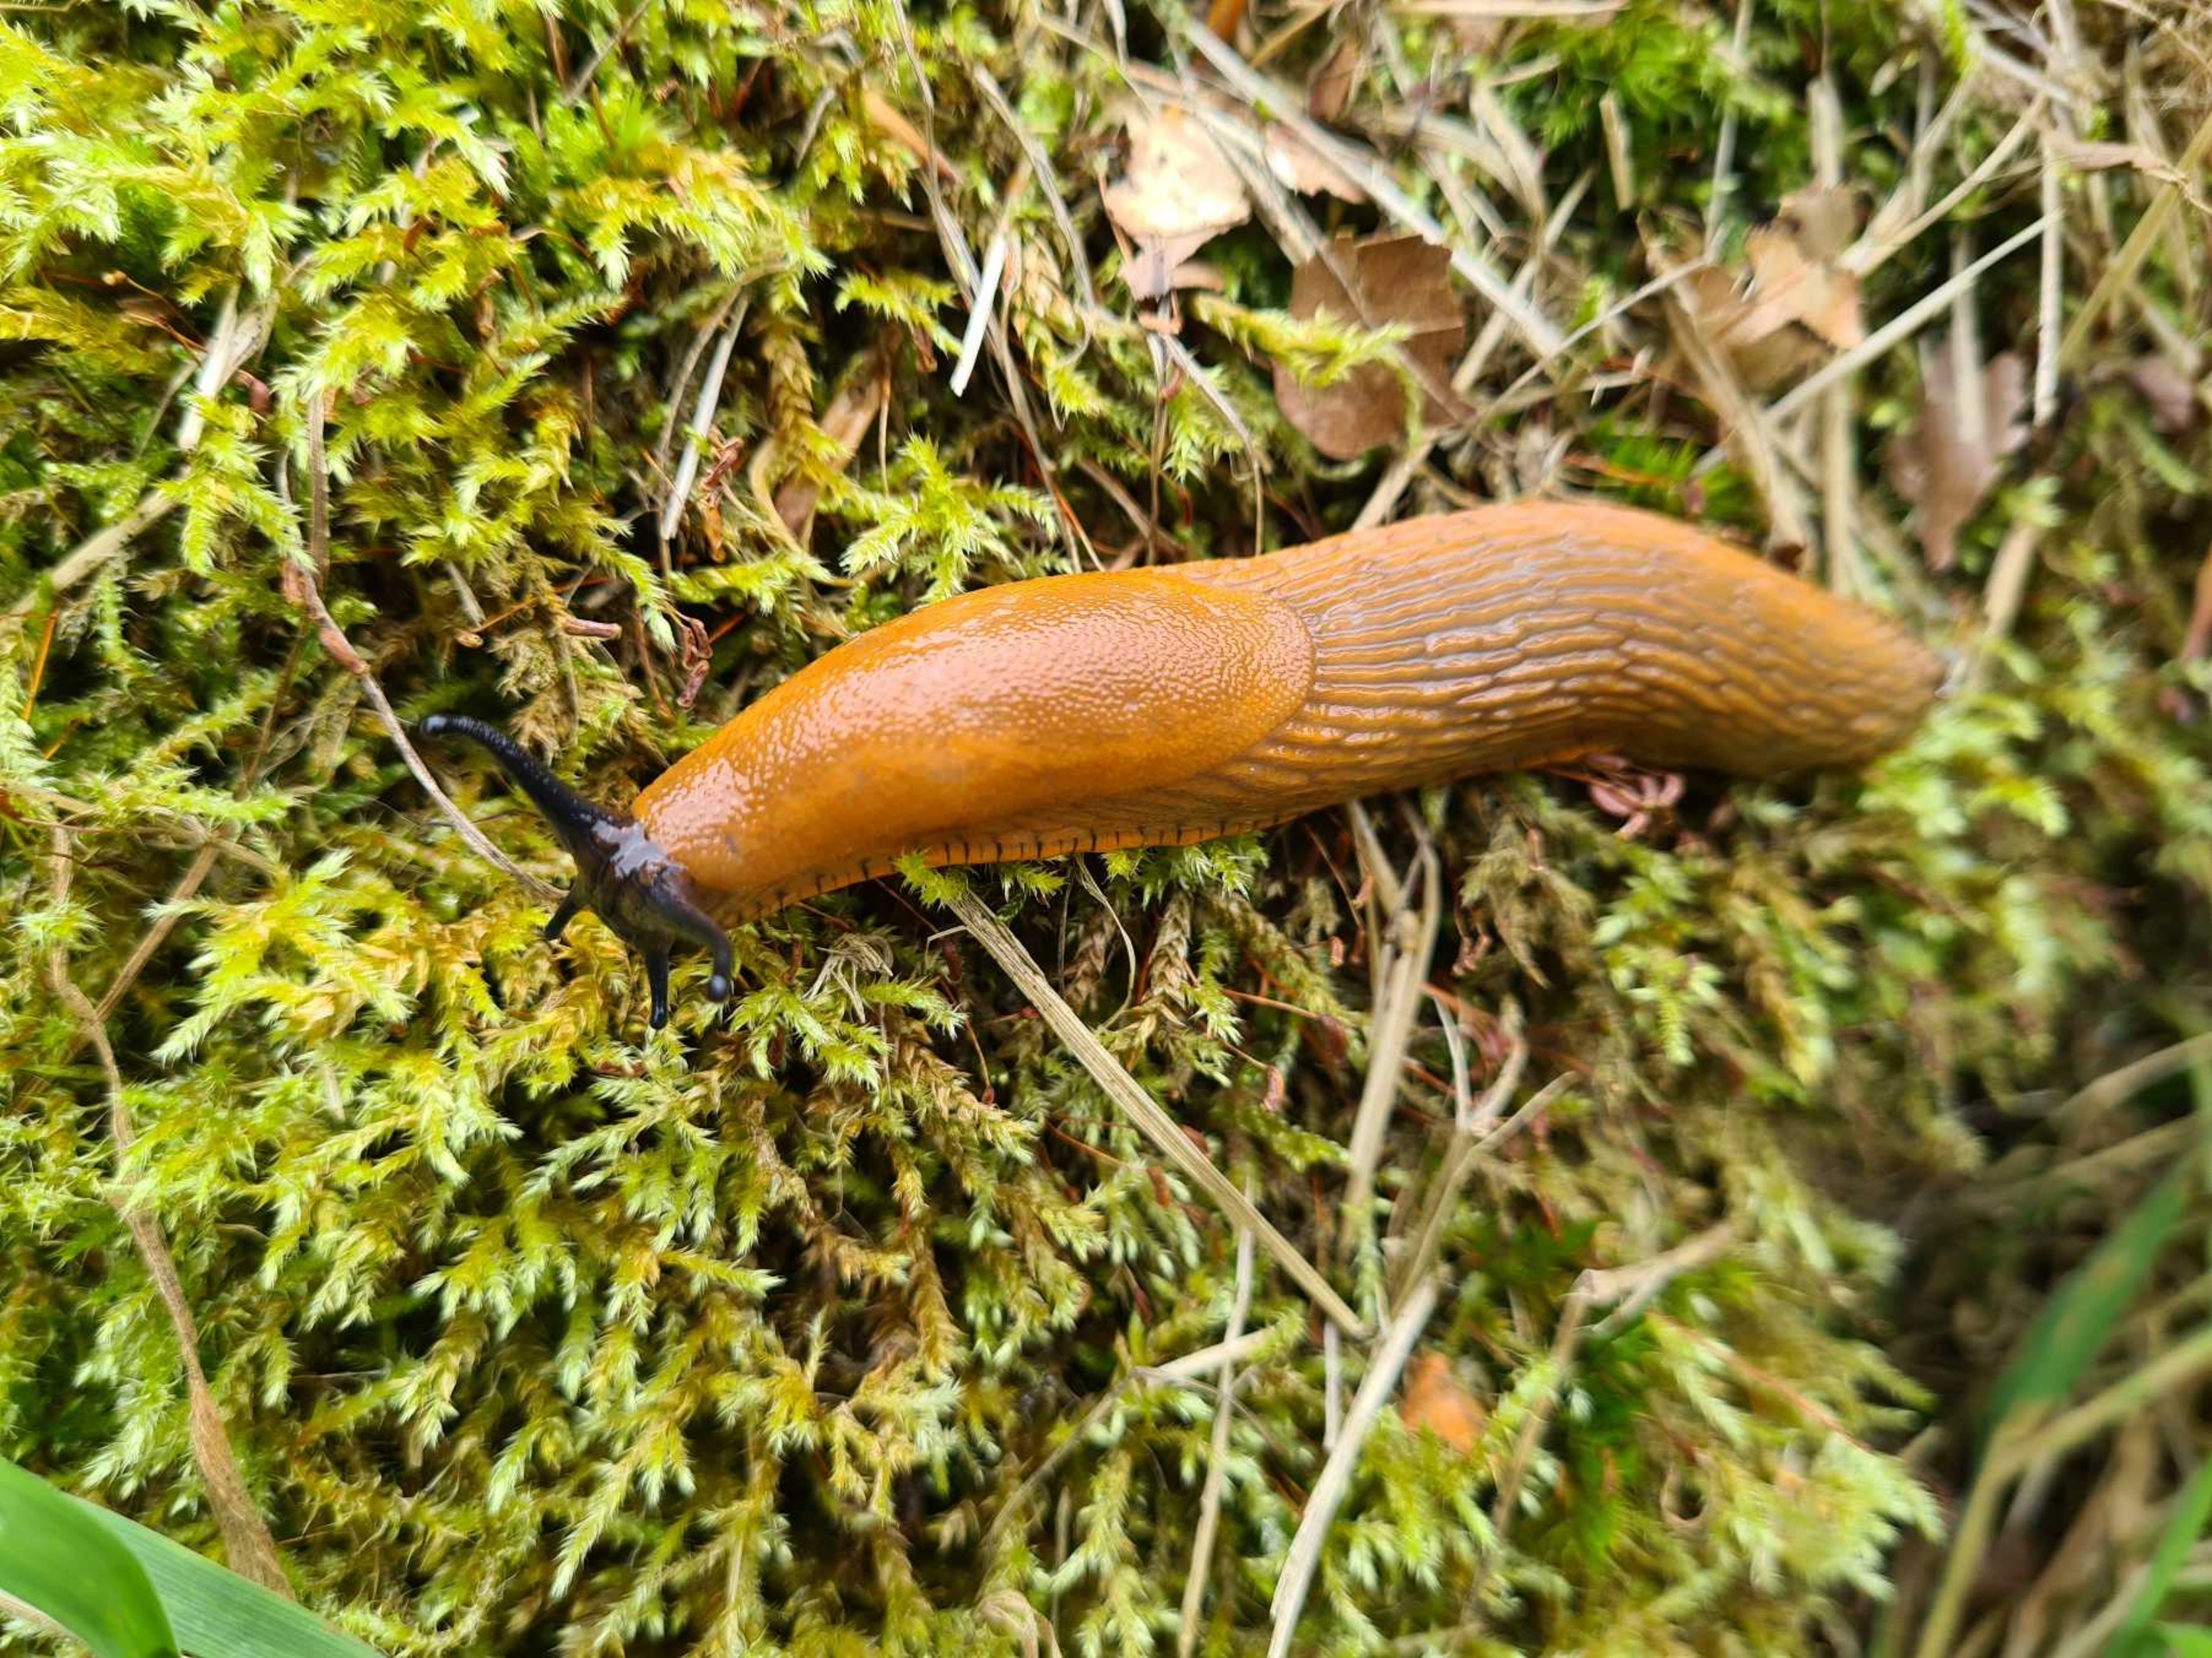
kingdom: Animalia
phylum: Mollusca
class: Gastropoda
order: Stylommatophora
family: Arionidae
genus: Arion
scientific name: Arion vulgaris
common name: Iberisk skovsnegl
